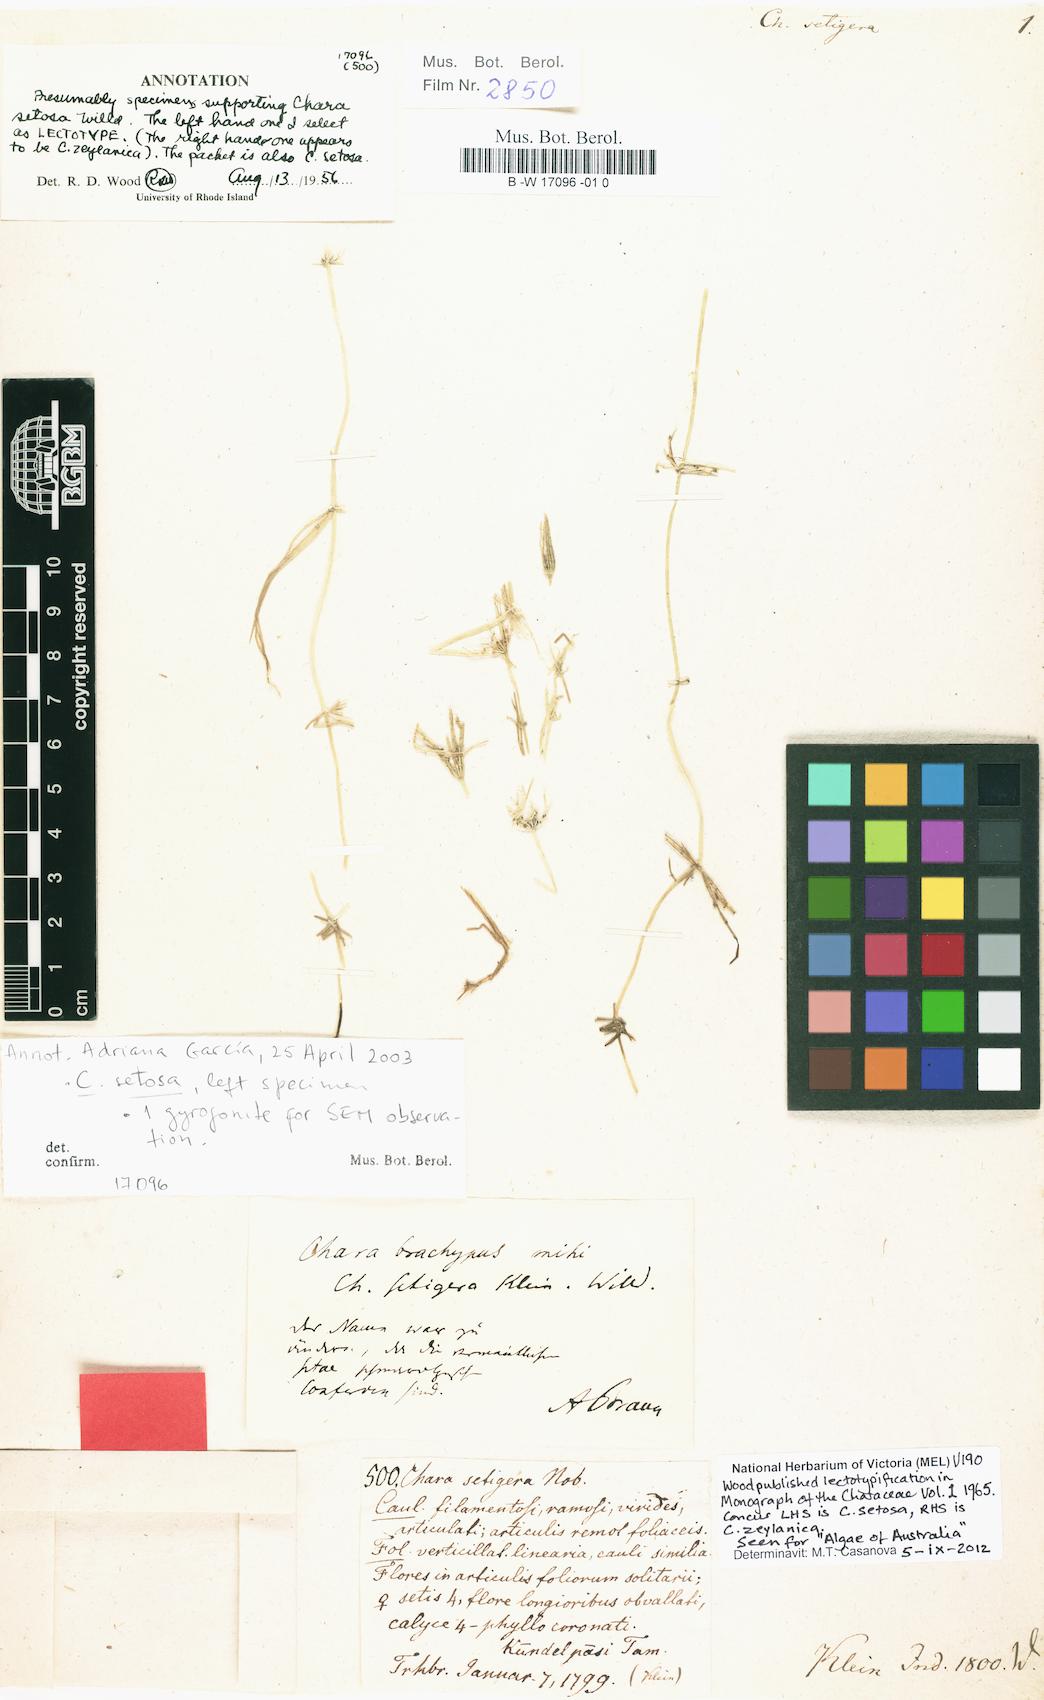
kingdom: Plantae
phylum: Charophyta
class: Charophyceae
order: Charales
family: Characeae
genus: Chara
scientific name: Chara
